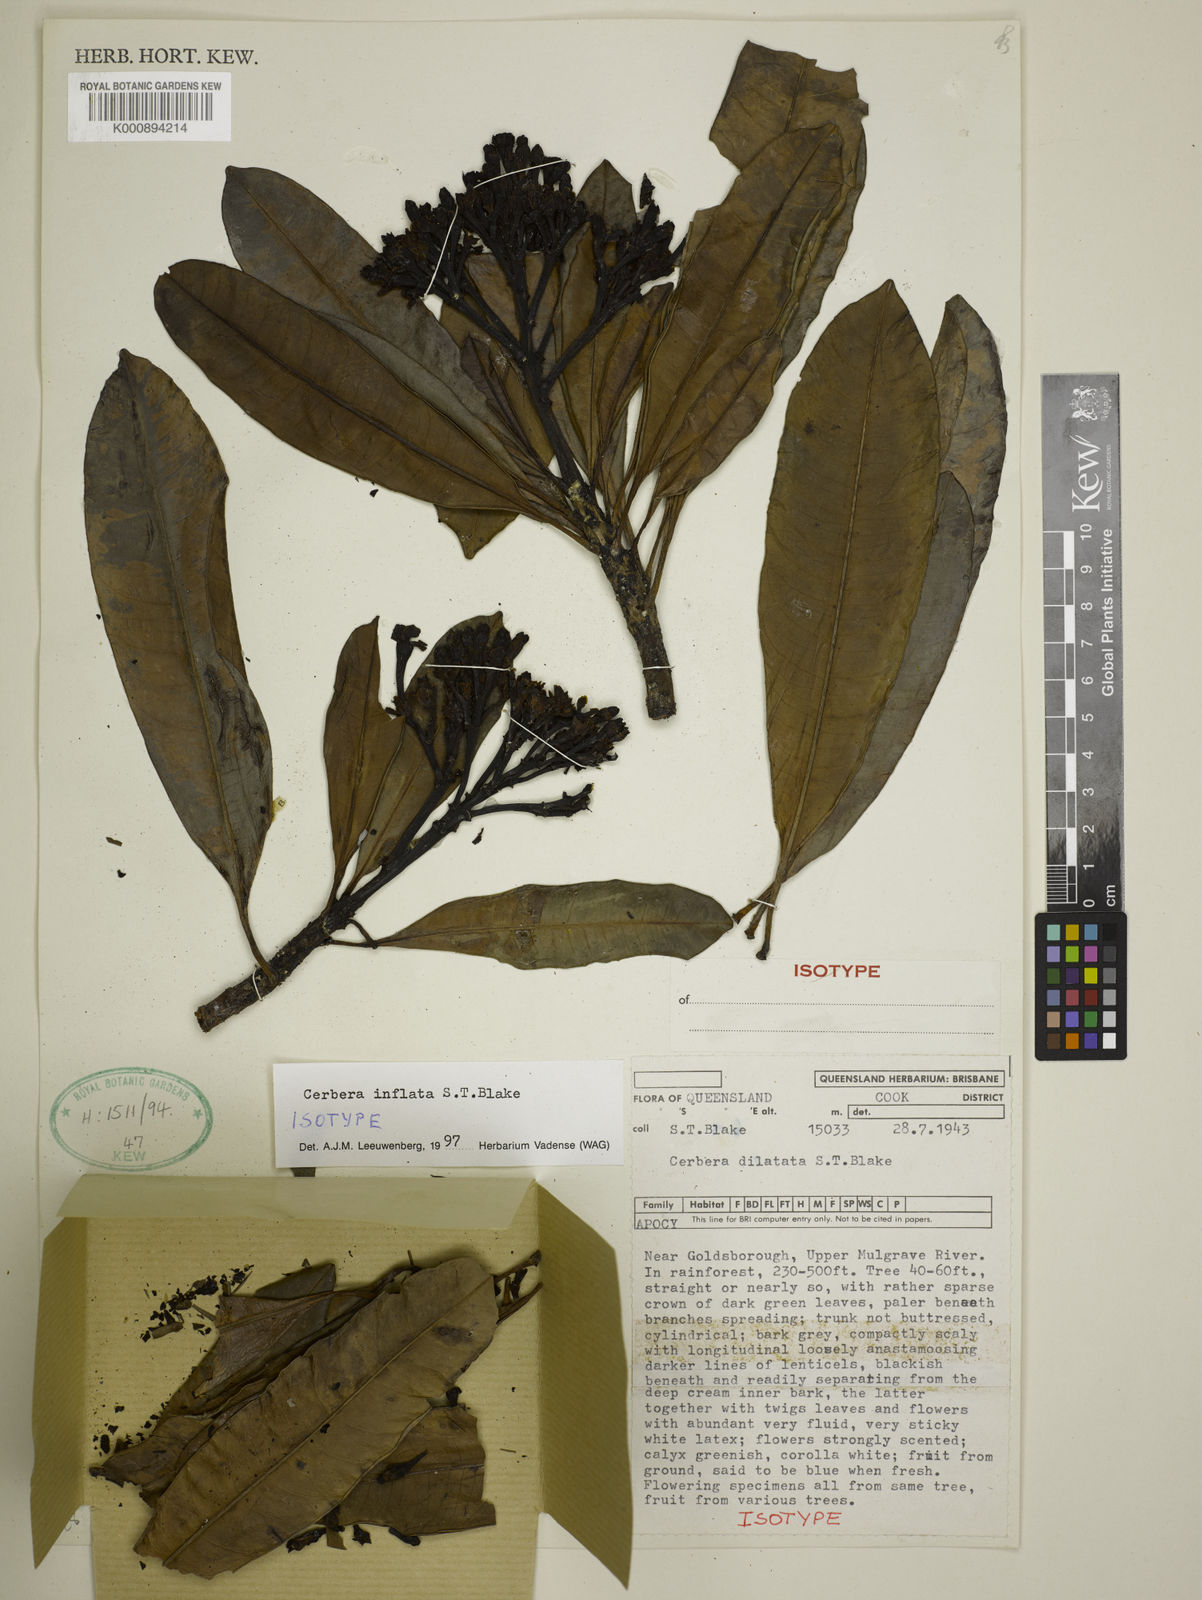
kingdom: Plantae
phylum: Tracheophyta
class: Magnoliopsida
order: Gentianales
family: Apocynaceae
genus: Cerbera
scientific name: Cerbera floribunda
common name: Cassowary plumtree
